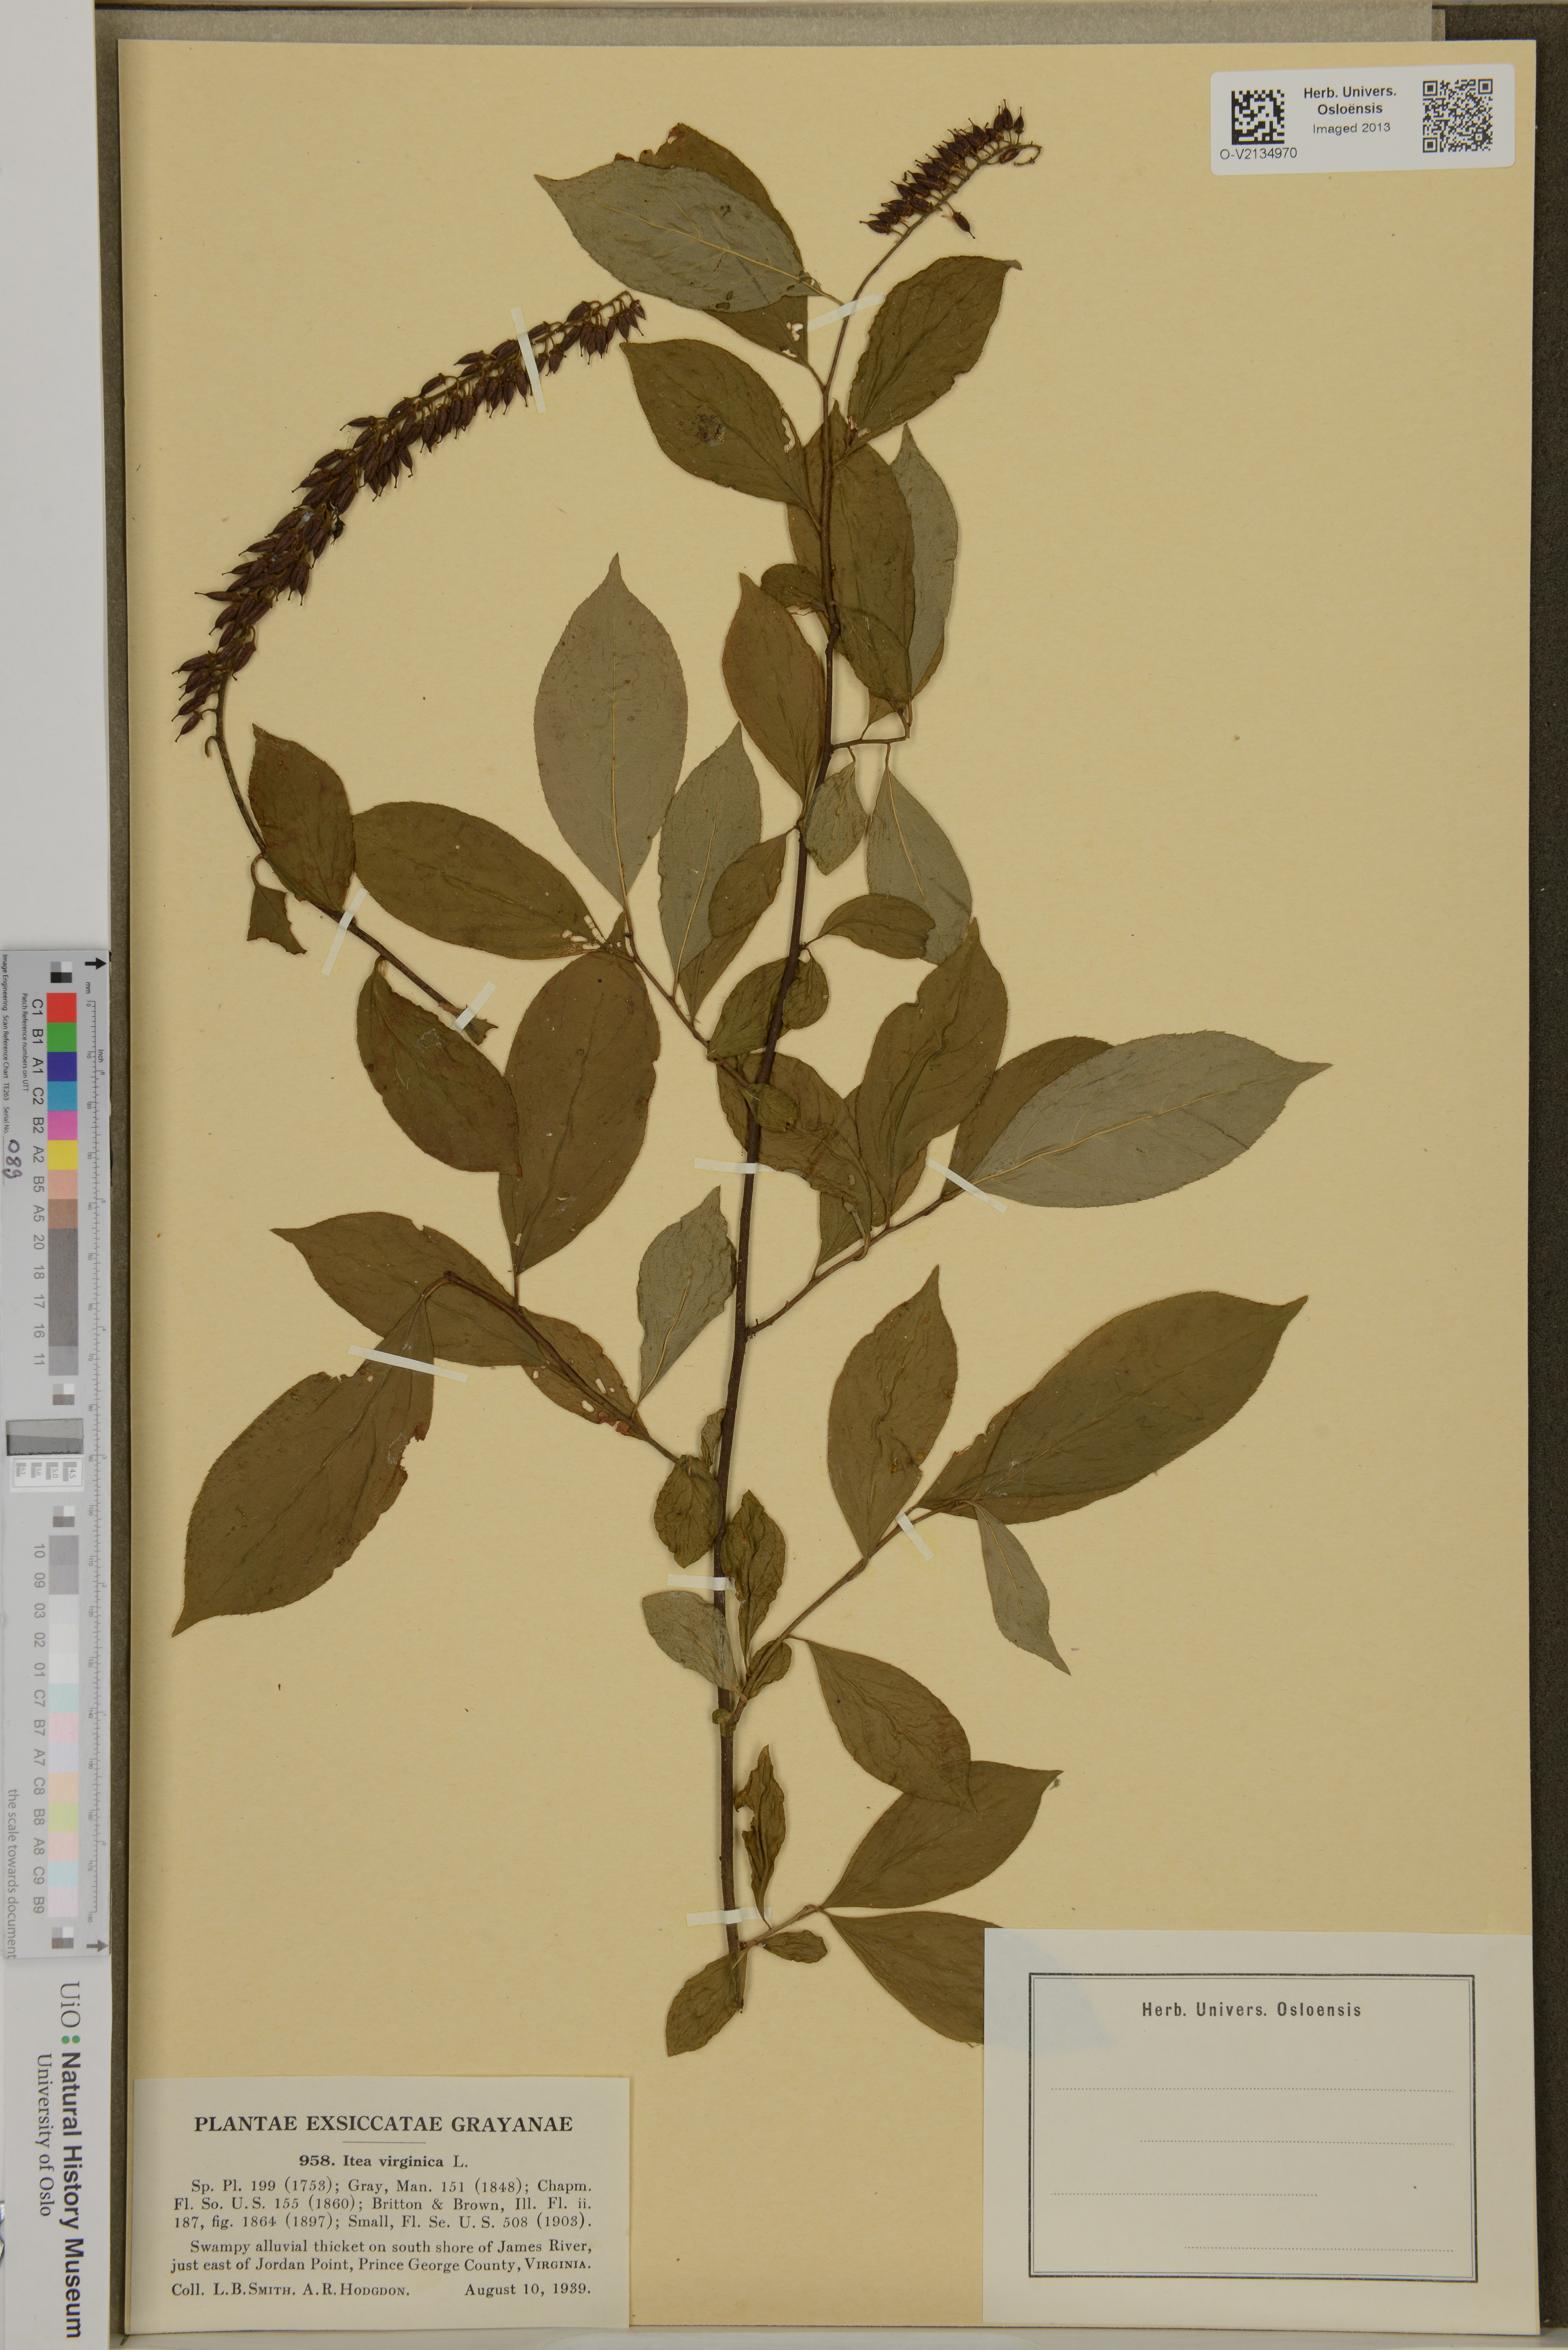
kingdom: Plantae
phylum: Tracheophyta
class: Magnoliopsida
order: Saxifragales
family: Iteaceae
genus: Itea
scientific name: Itea virginica
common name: Sweetspire
